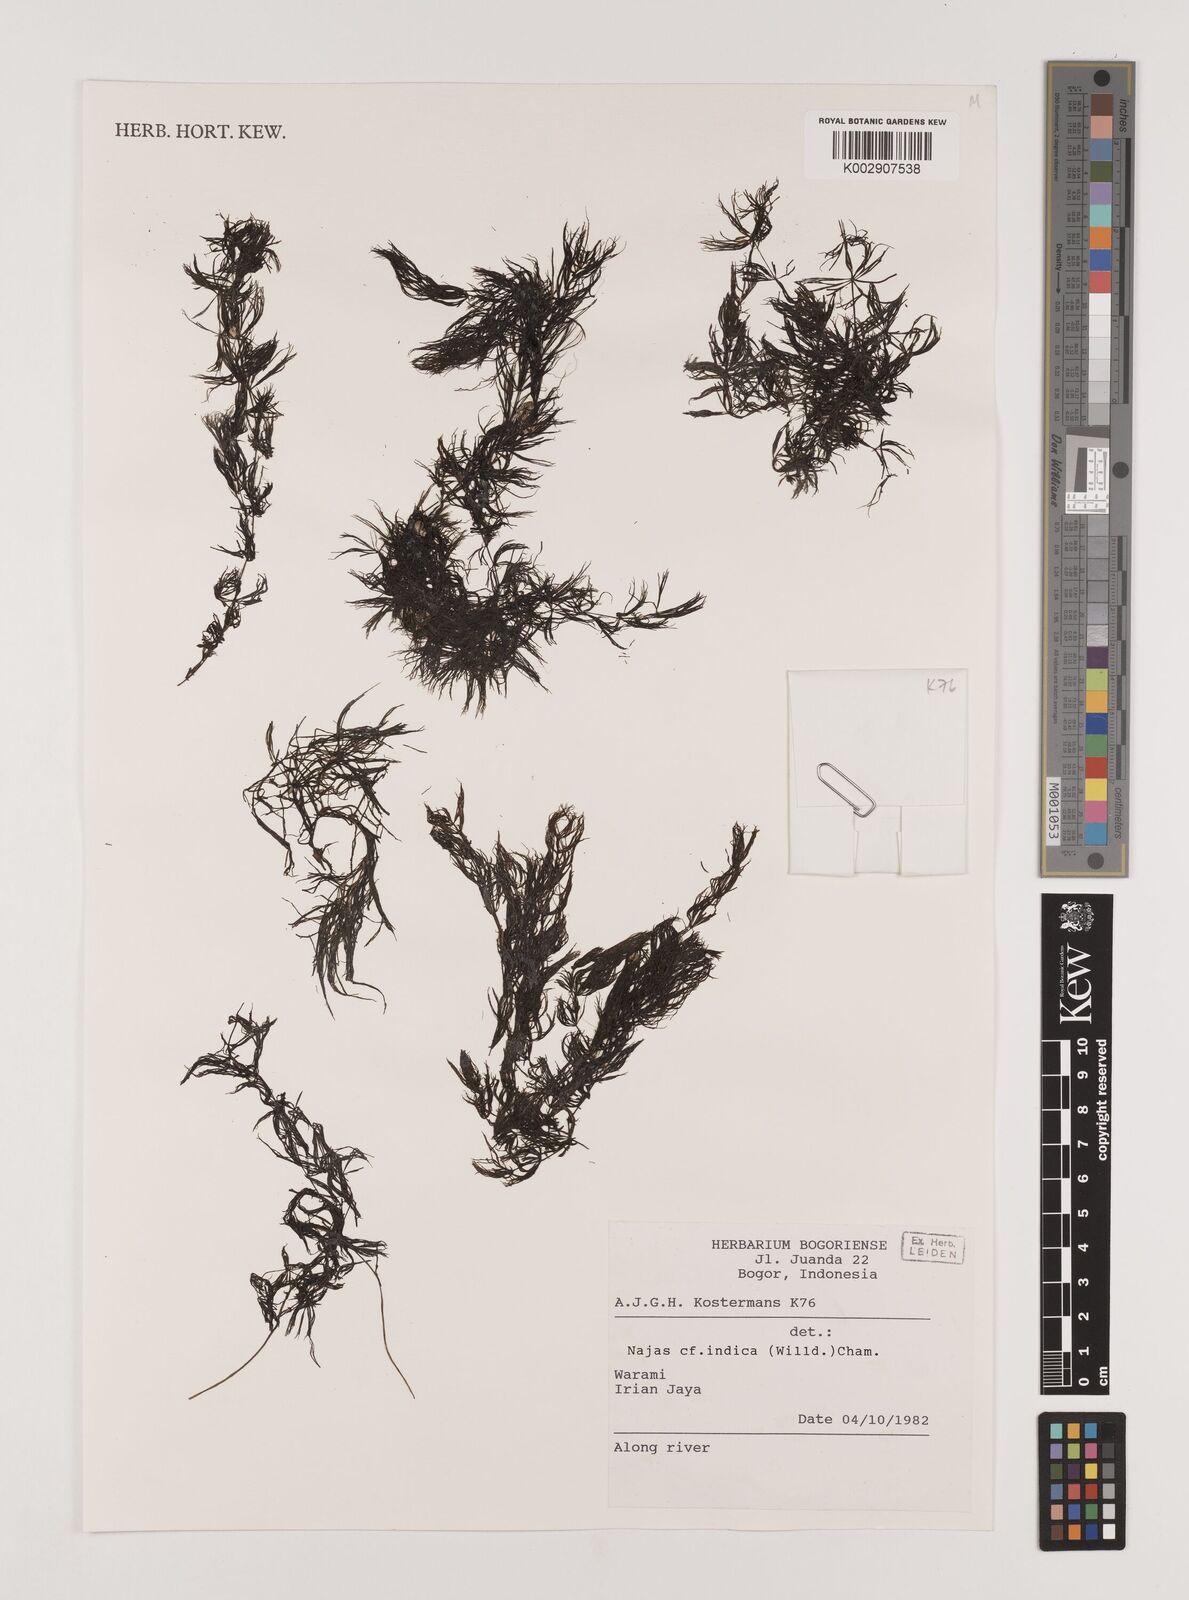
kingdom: Plantae
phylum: Tracheophyta
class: Liliopsida
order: Alismatales
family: Hydrocharitaceae
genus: Najas
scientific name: Najas
